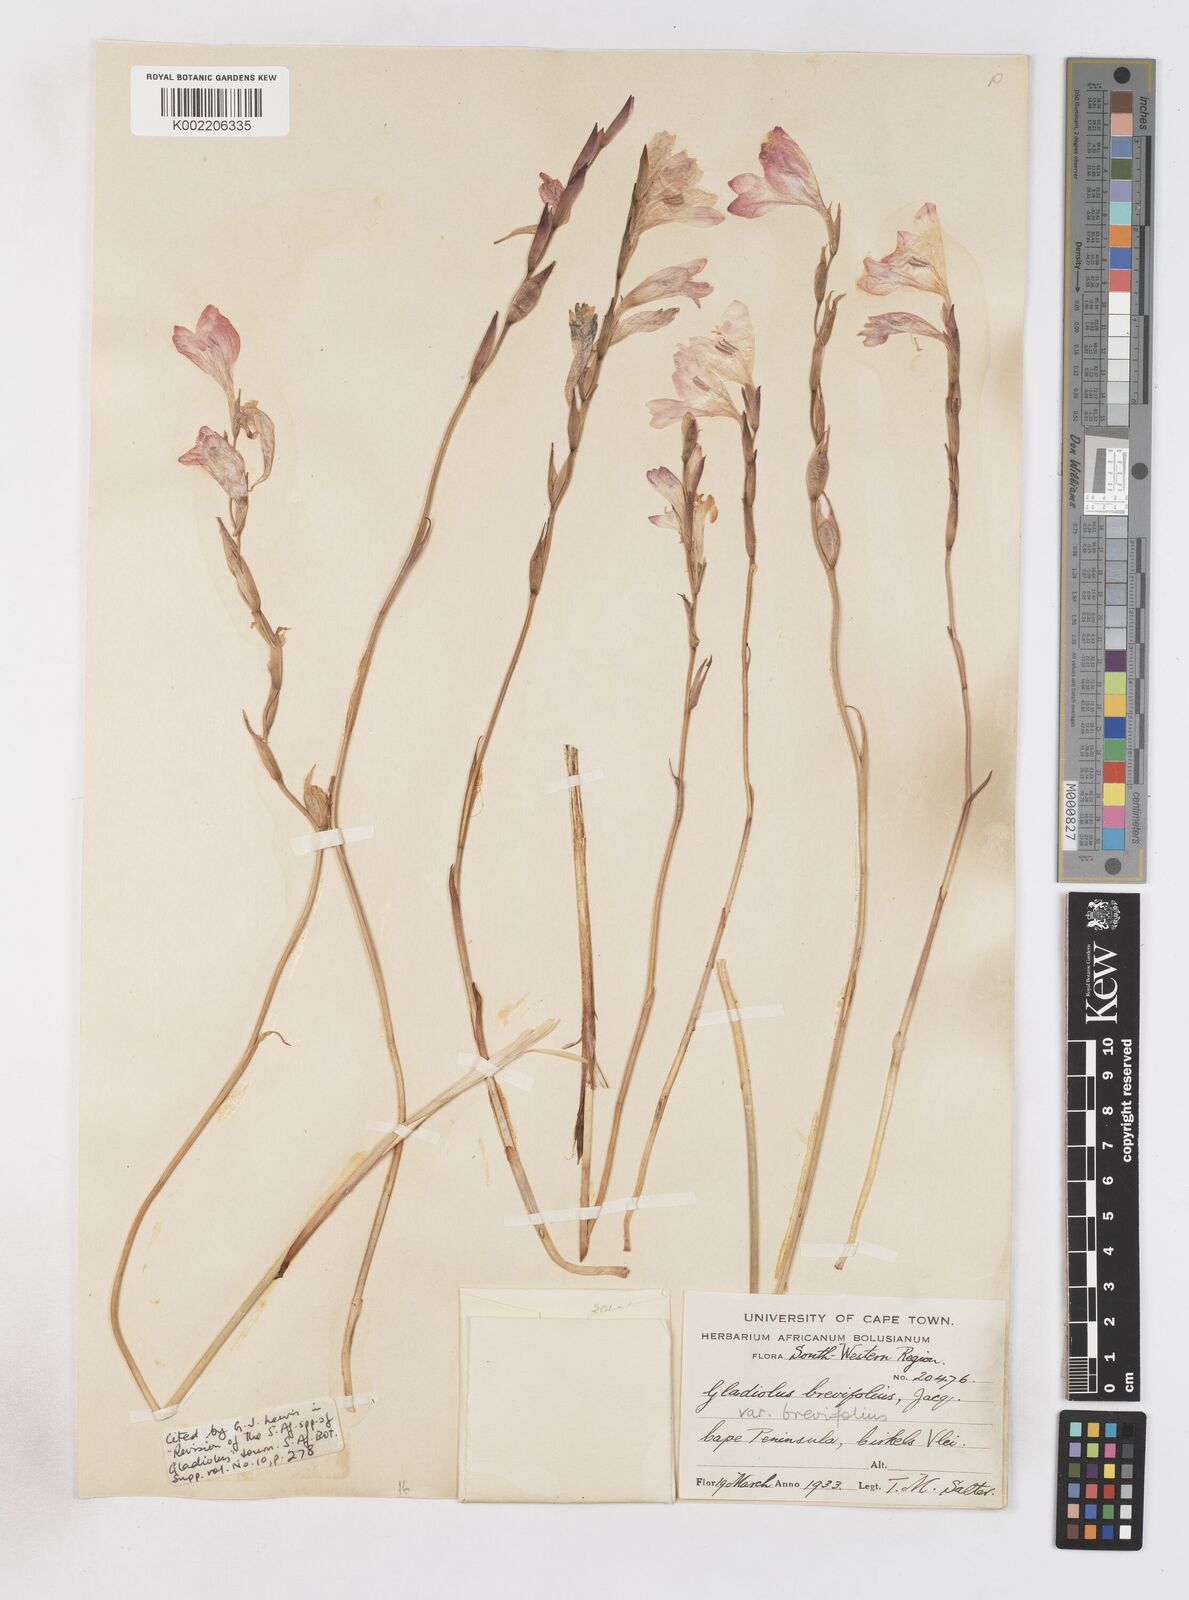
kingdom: Plantae
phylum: Tracheophyta
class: Liliopsida
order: Asparagales
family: Iridaceae
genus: Gladiolus
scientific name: Gladiolus brevifolius
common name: March pypie
